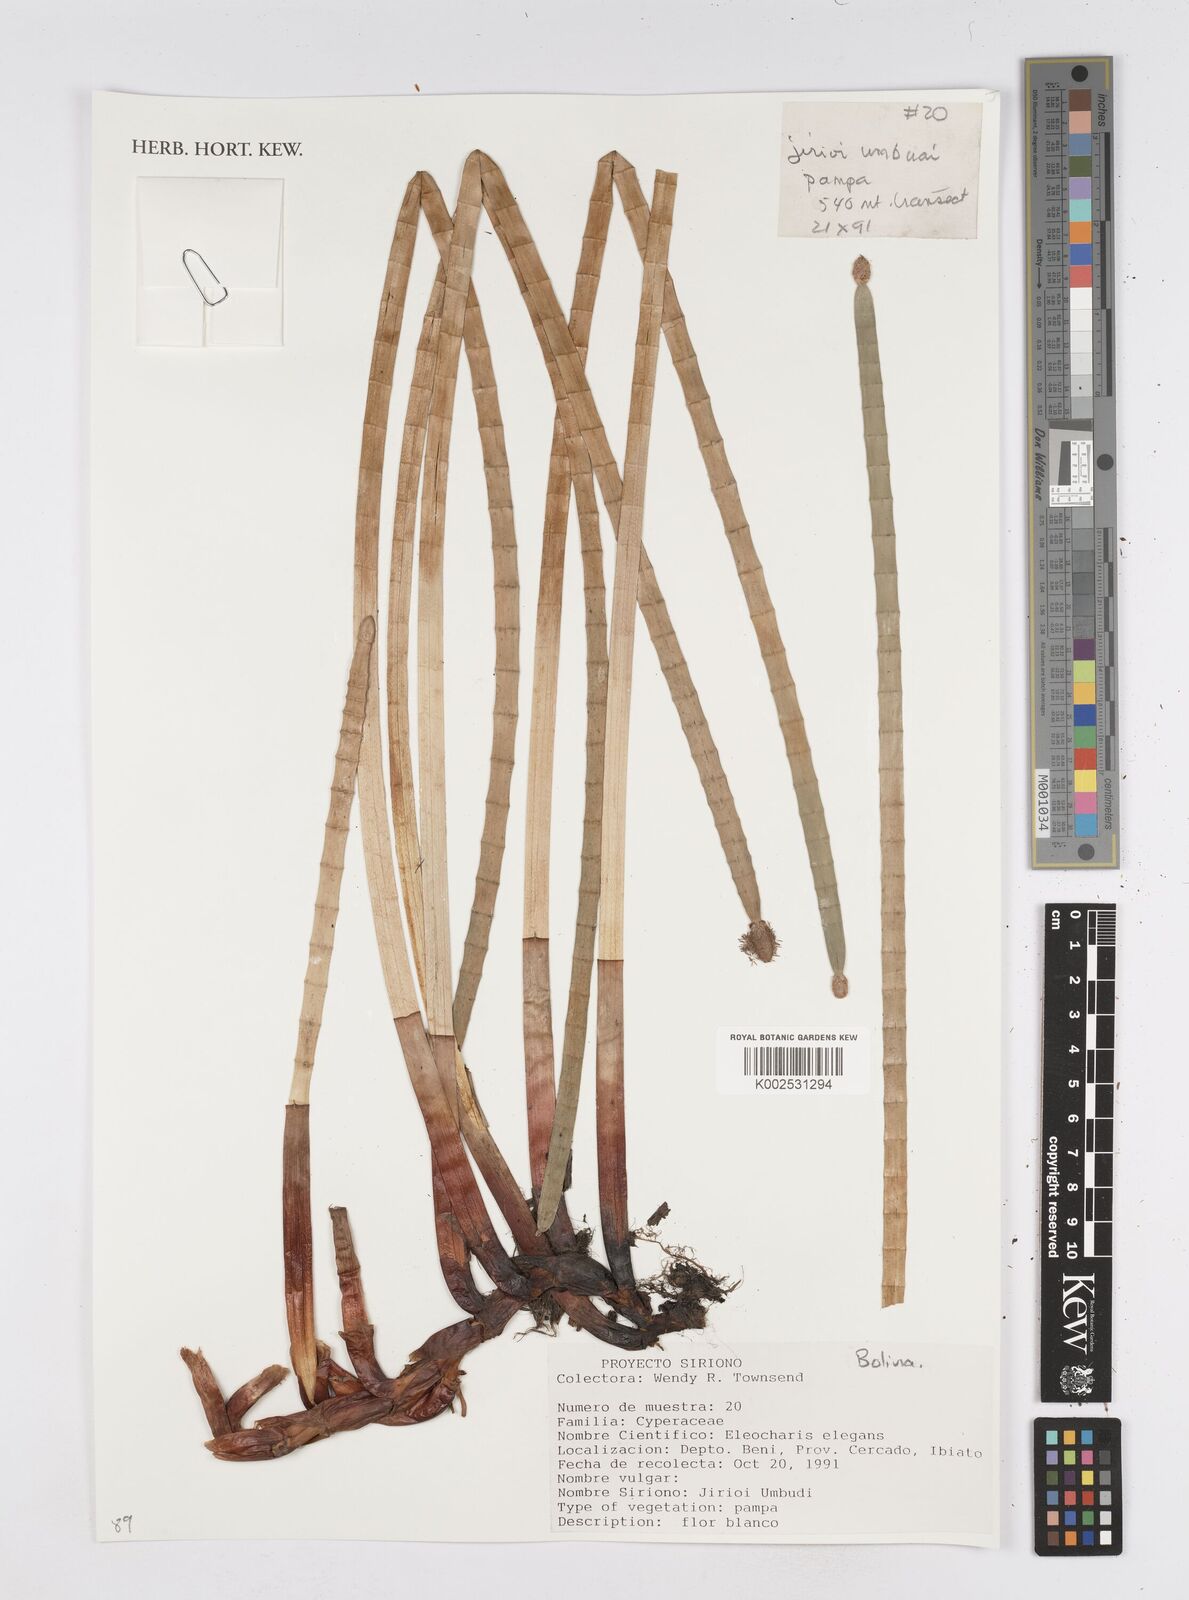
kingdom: Plantae
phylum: Tracheophyta
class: Liliopsida
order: Poales
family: Cyperaceae
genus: Eleocharis
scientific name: Eleocharis elegans
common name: Elegant spike-rush
